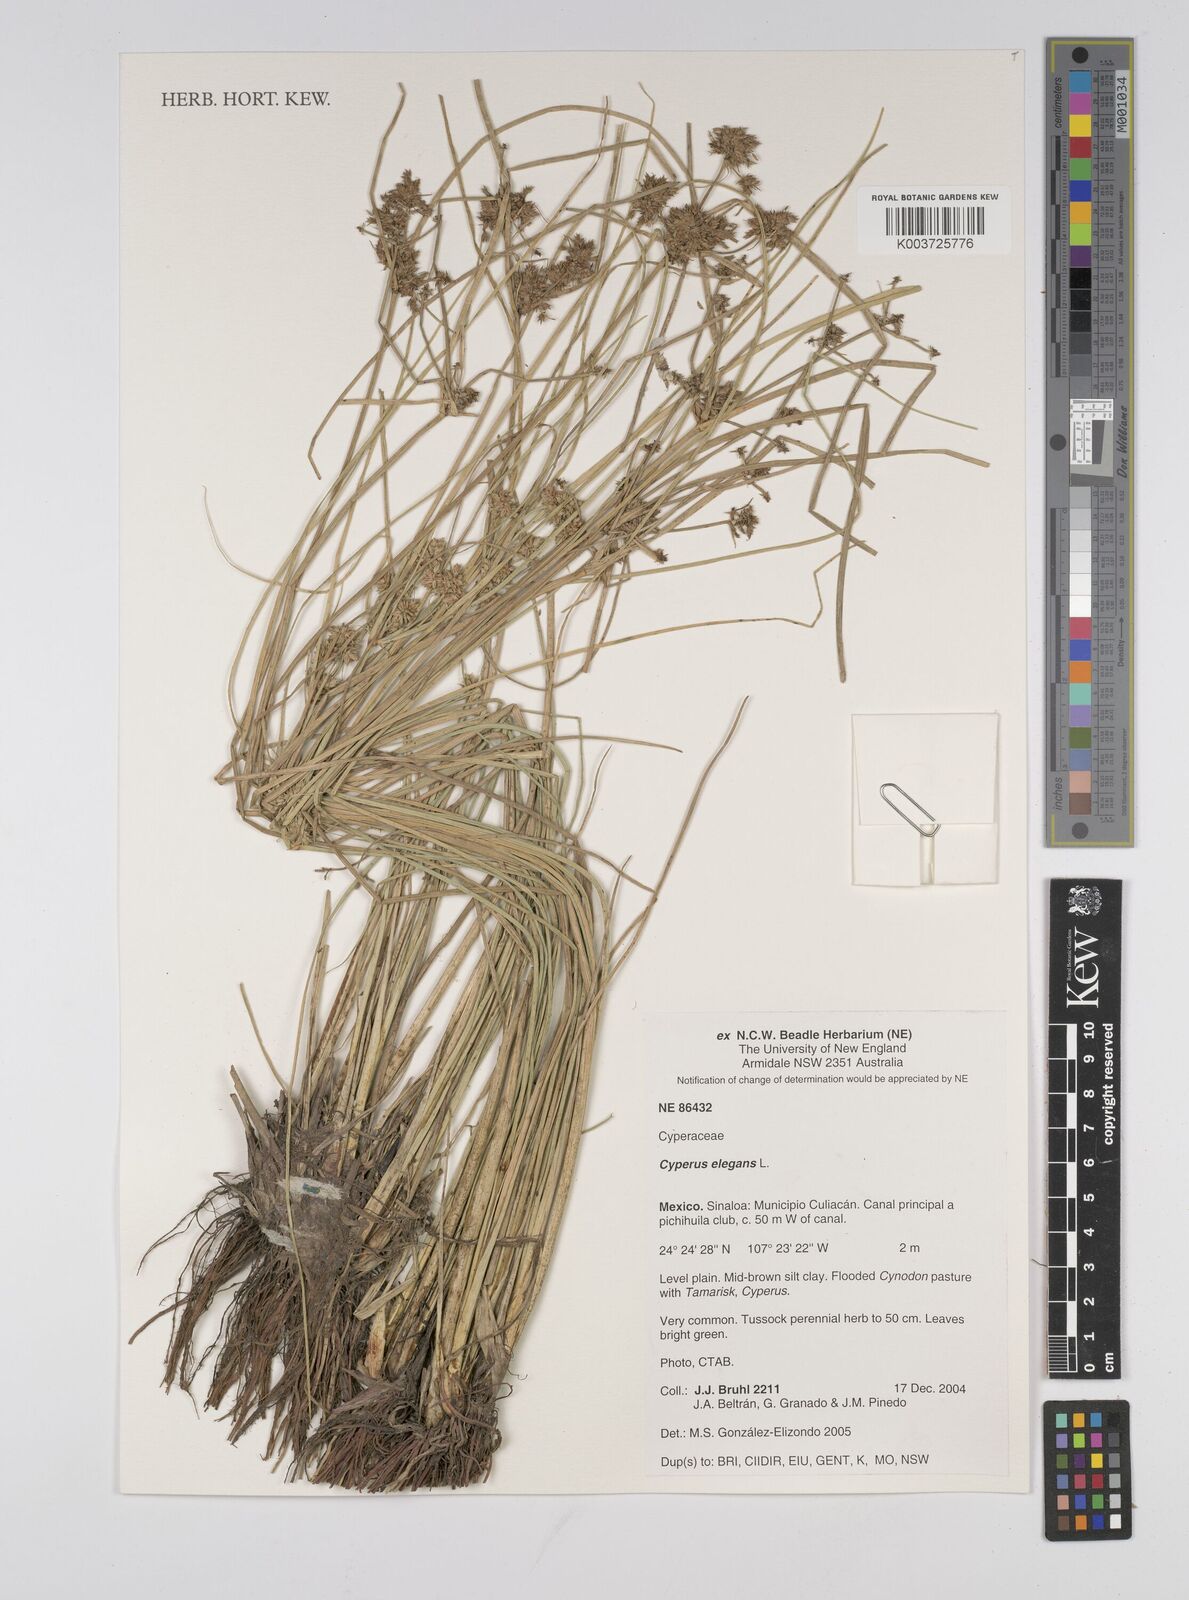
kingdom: Plantae
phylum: Tracheophyta
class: Liliopsida
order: Poales
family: Cyperaceae
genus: Cyperus
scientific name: Cyperus elegans
